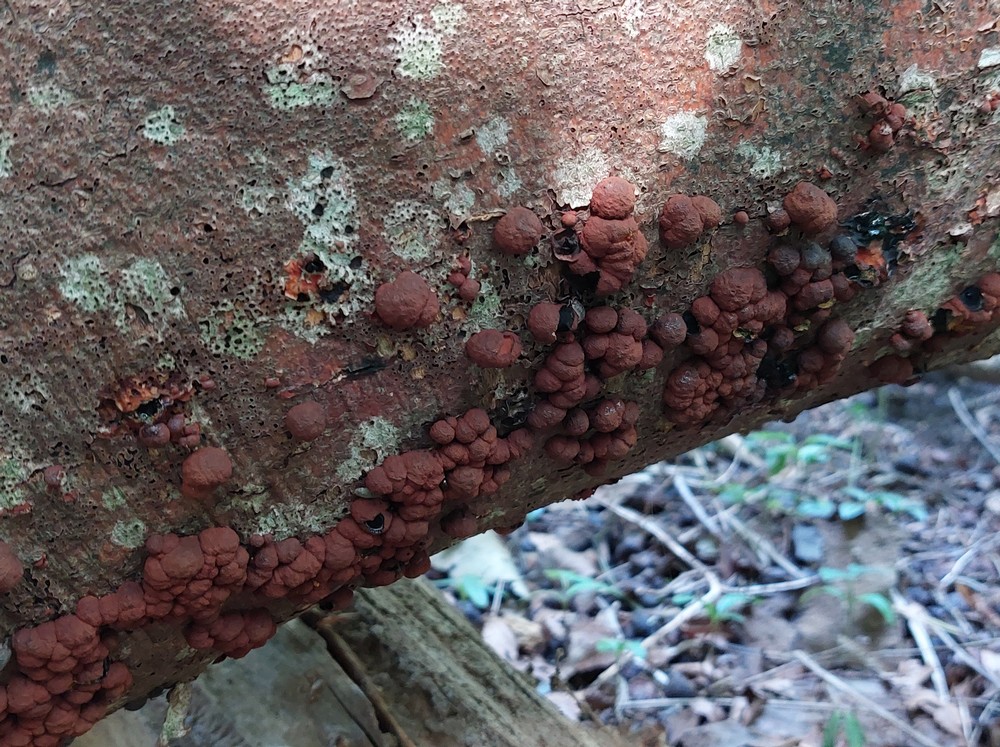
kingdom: Fungi
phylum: Ascomycota
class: Sordariomycetes
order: Xylariales
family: Hypoxylaceae
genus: Hypoxylon
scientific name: Hypoxylon fragiforme
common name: kuljordbær
